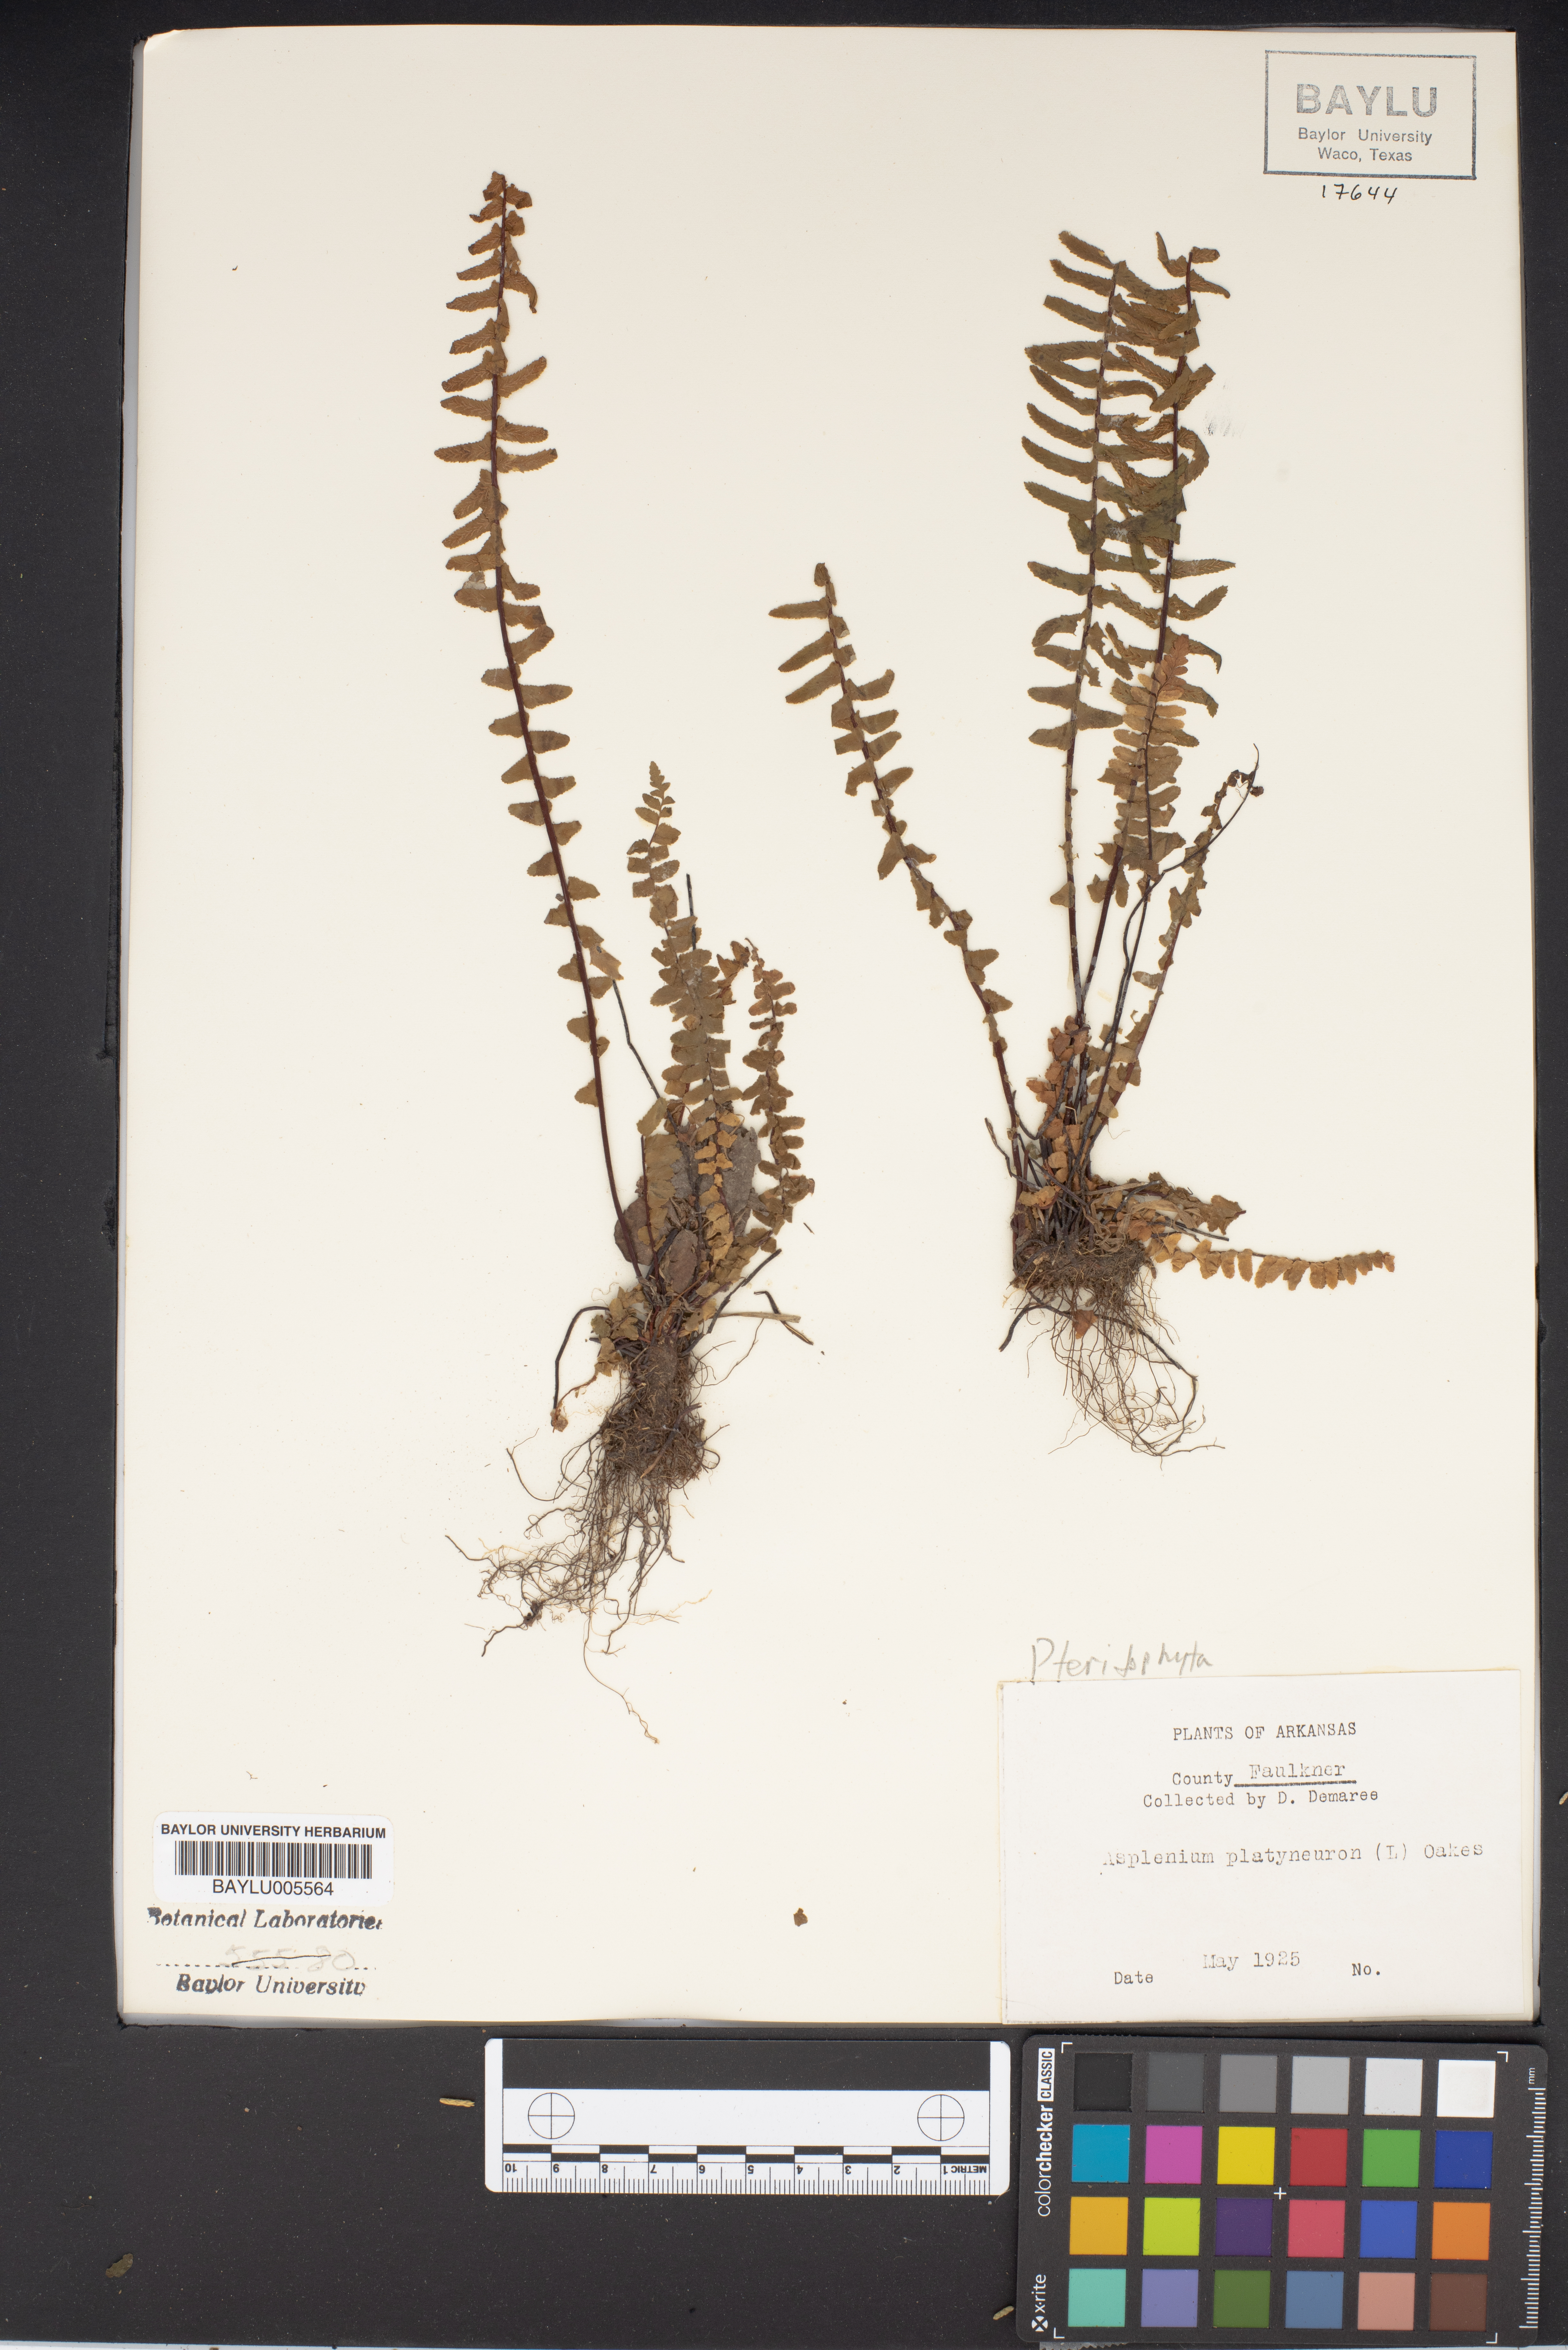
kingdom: Plantae
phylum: Tracheophyta
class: Polypodiopsida
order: Polypodiales
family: Aspleniaceae
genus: Asplenium
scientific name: Asplenium platyneuron
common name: Ebony spleenwort
